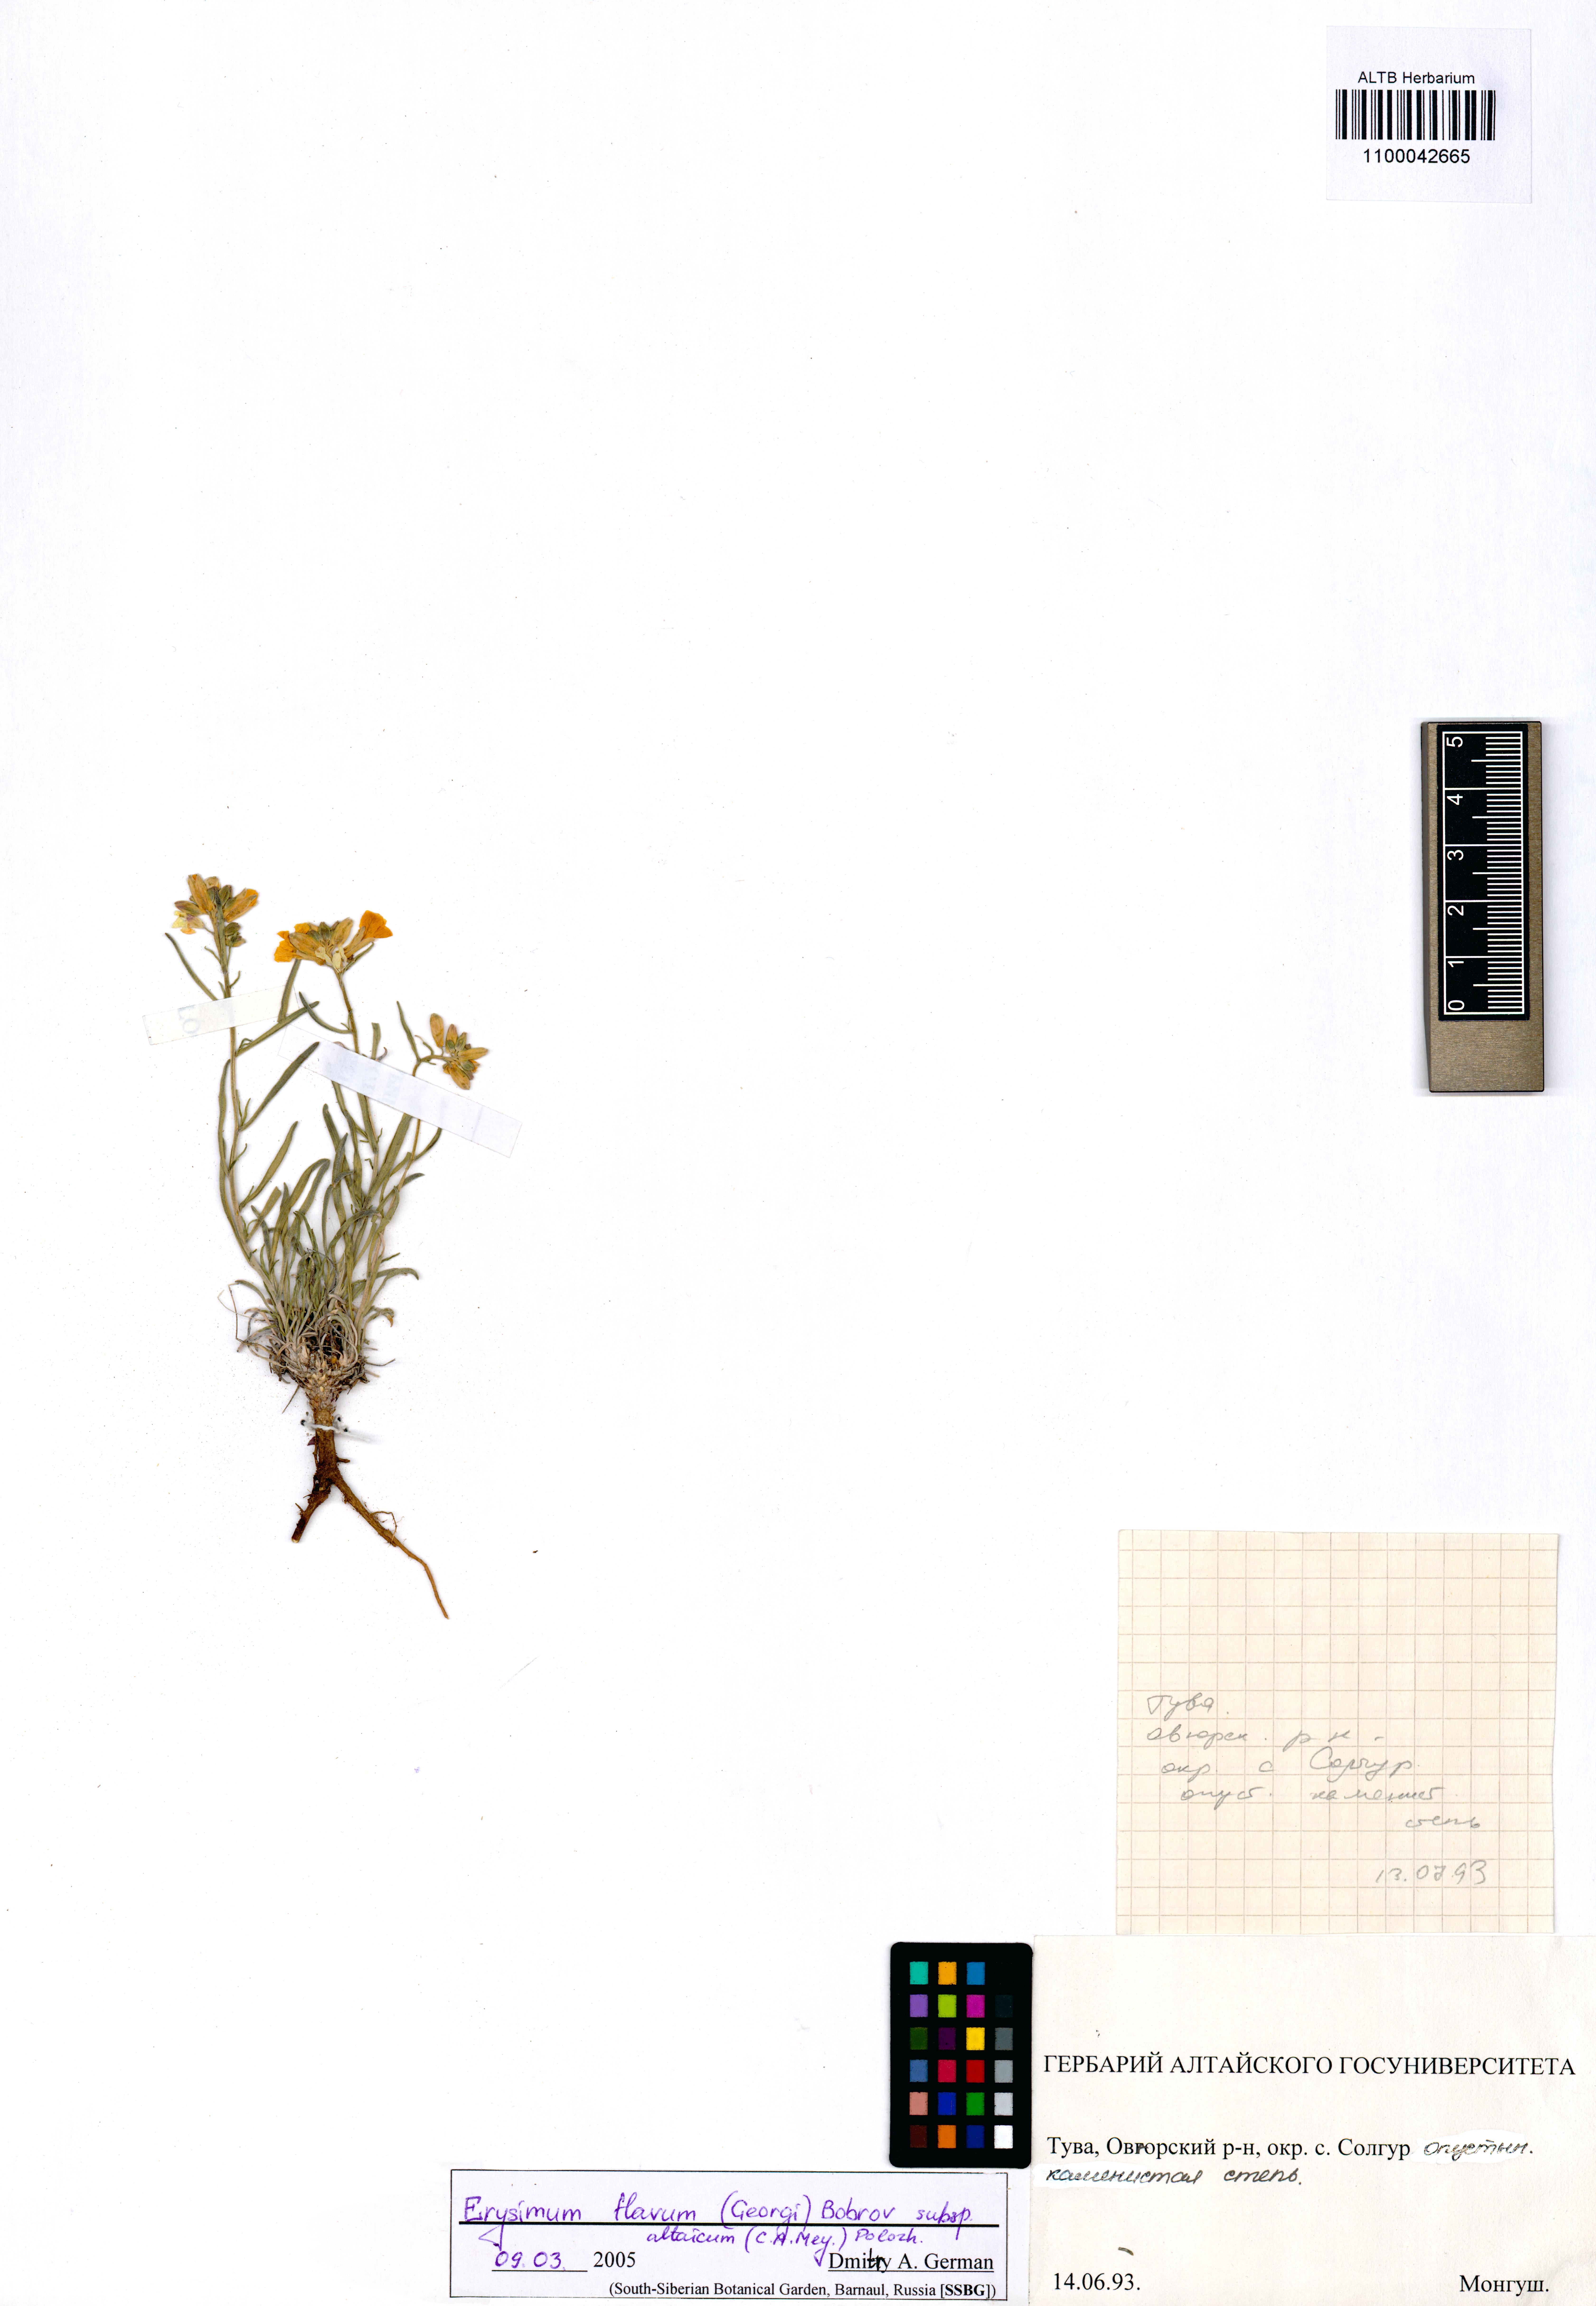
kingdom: Plantae
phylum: Tracheophyta
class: Magnoliopsida
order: Brassicales
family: Brassicaceae
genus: Erysimum
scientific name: Erysimum flavum
